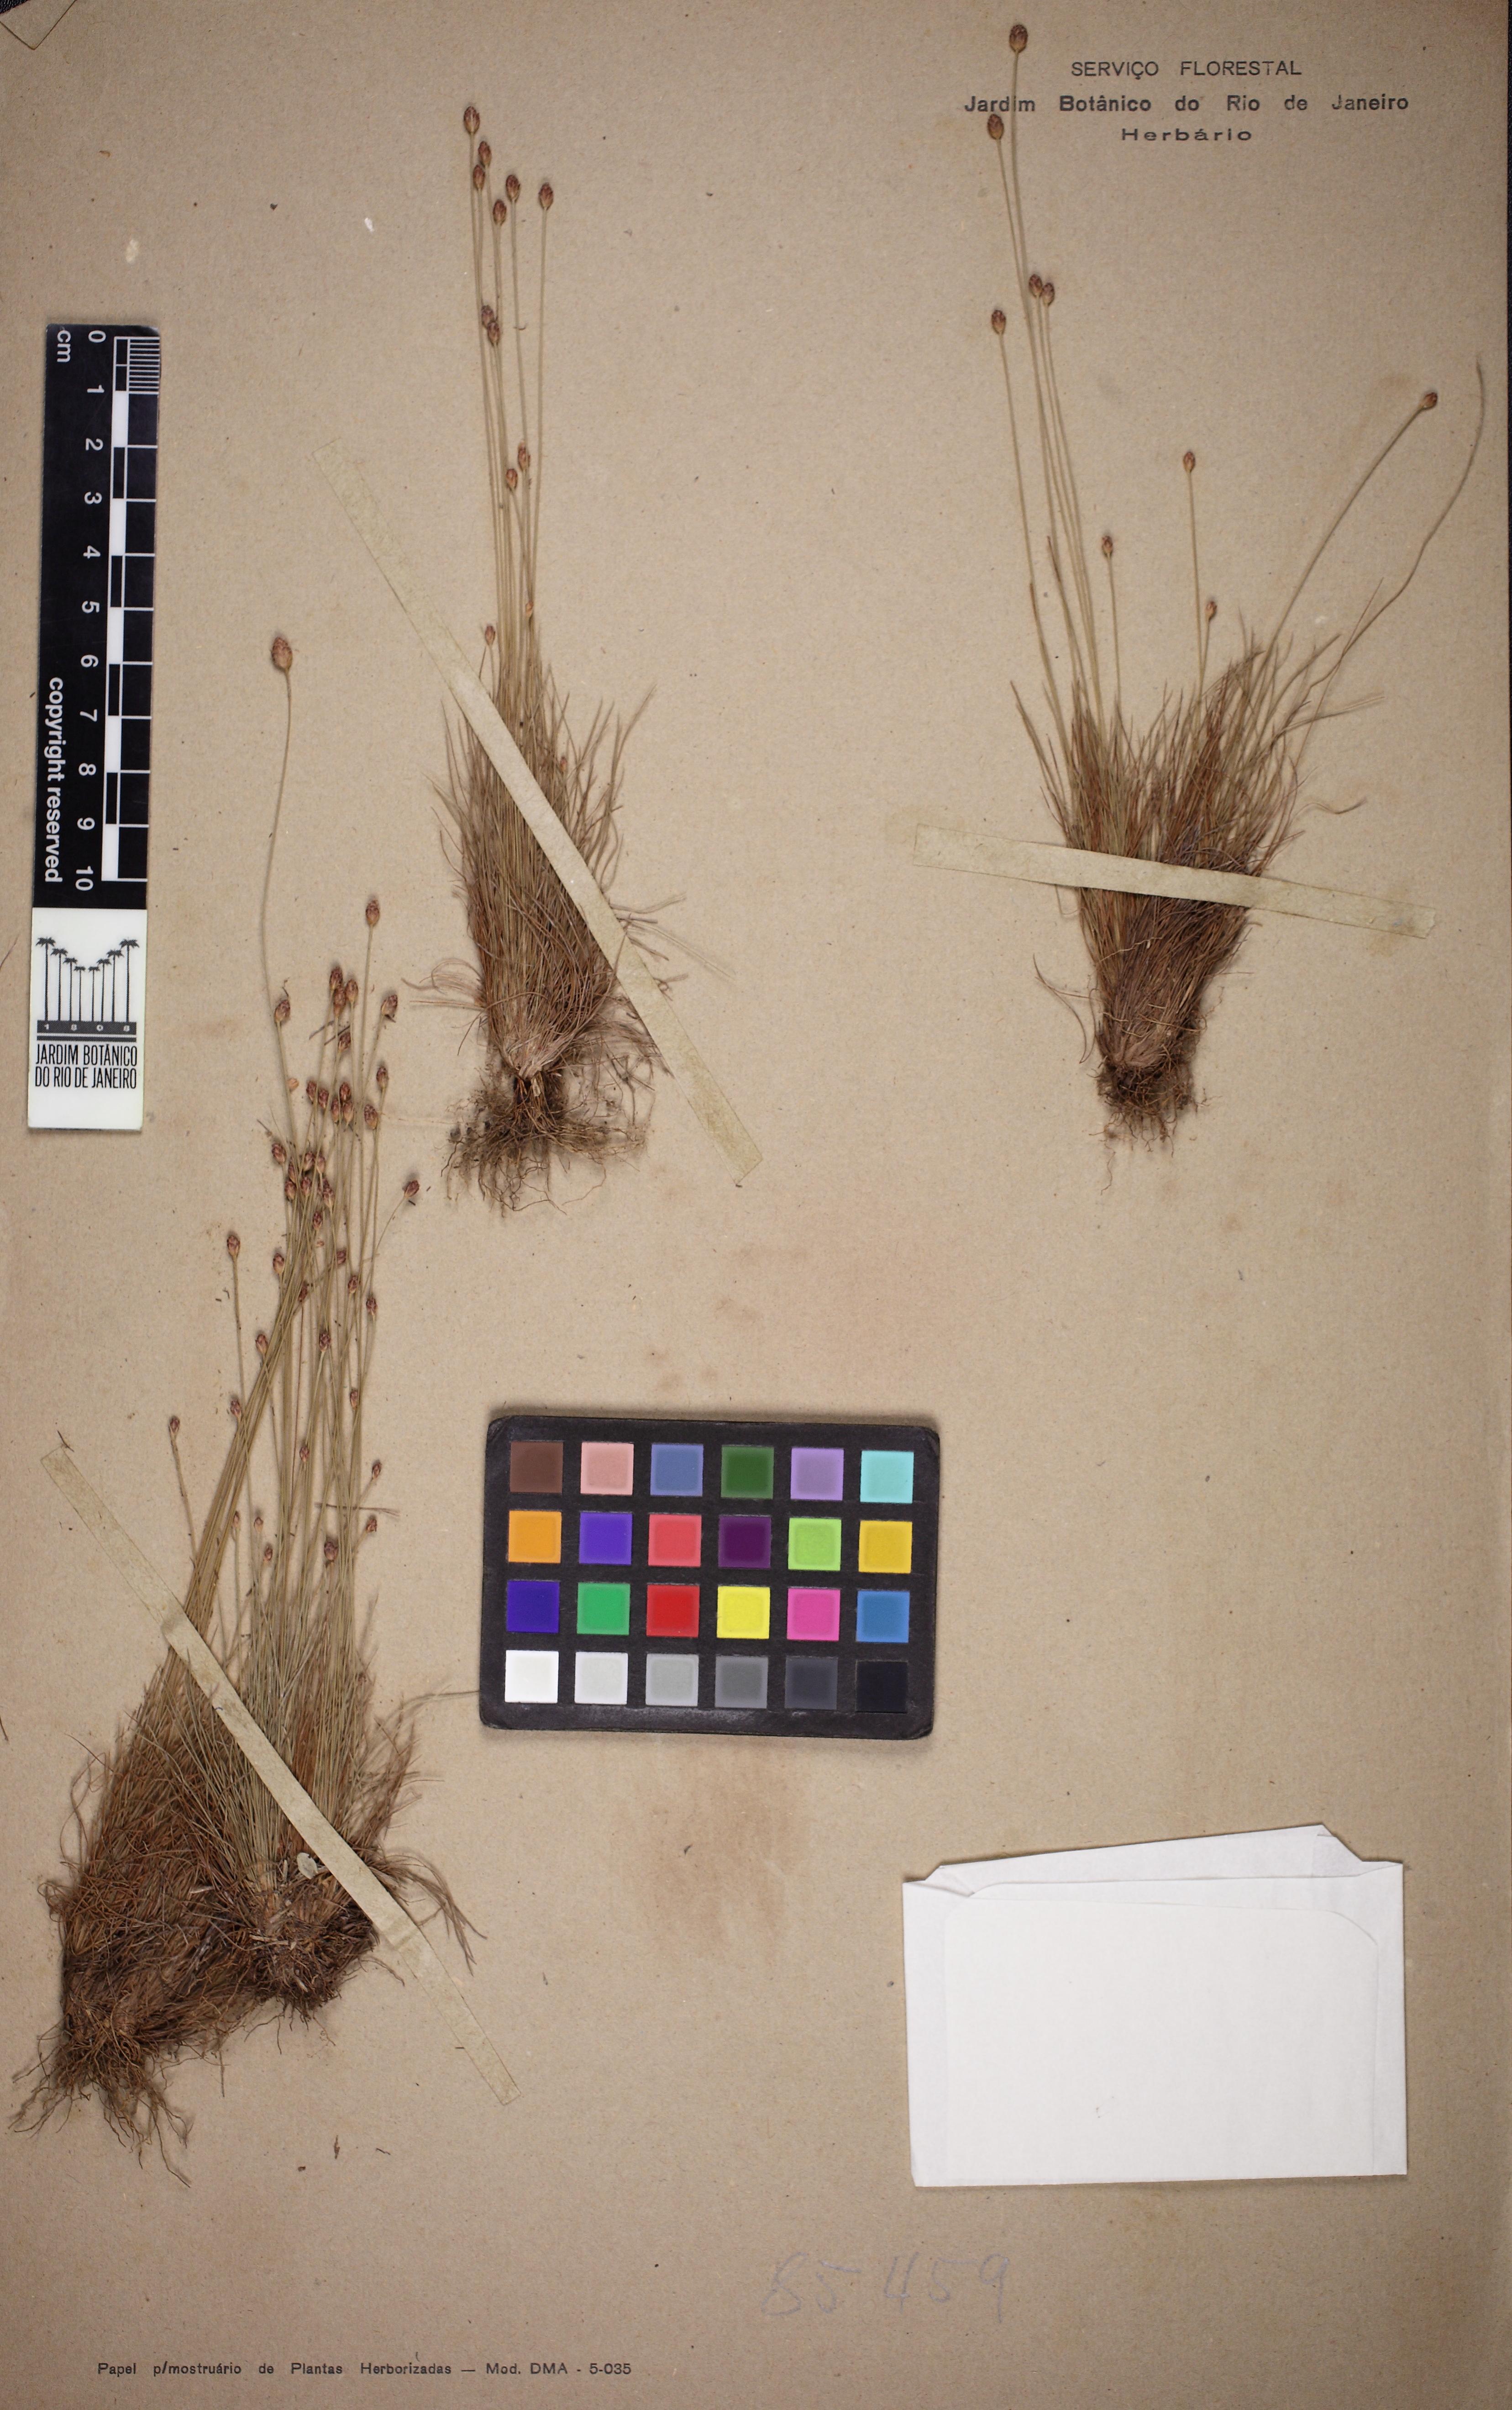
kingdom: Plantae
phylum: Tracheophyta
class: Liliopsida
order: Poales
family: Cyperaceae
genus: Bulbostylis
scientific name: Bulbostylis conifera
